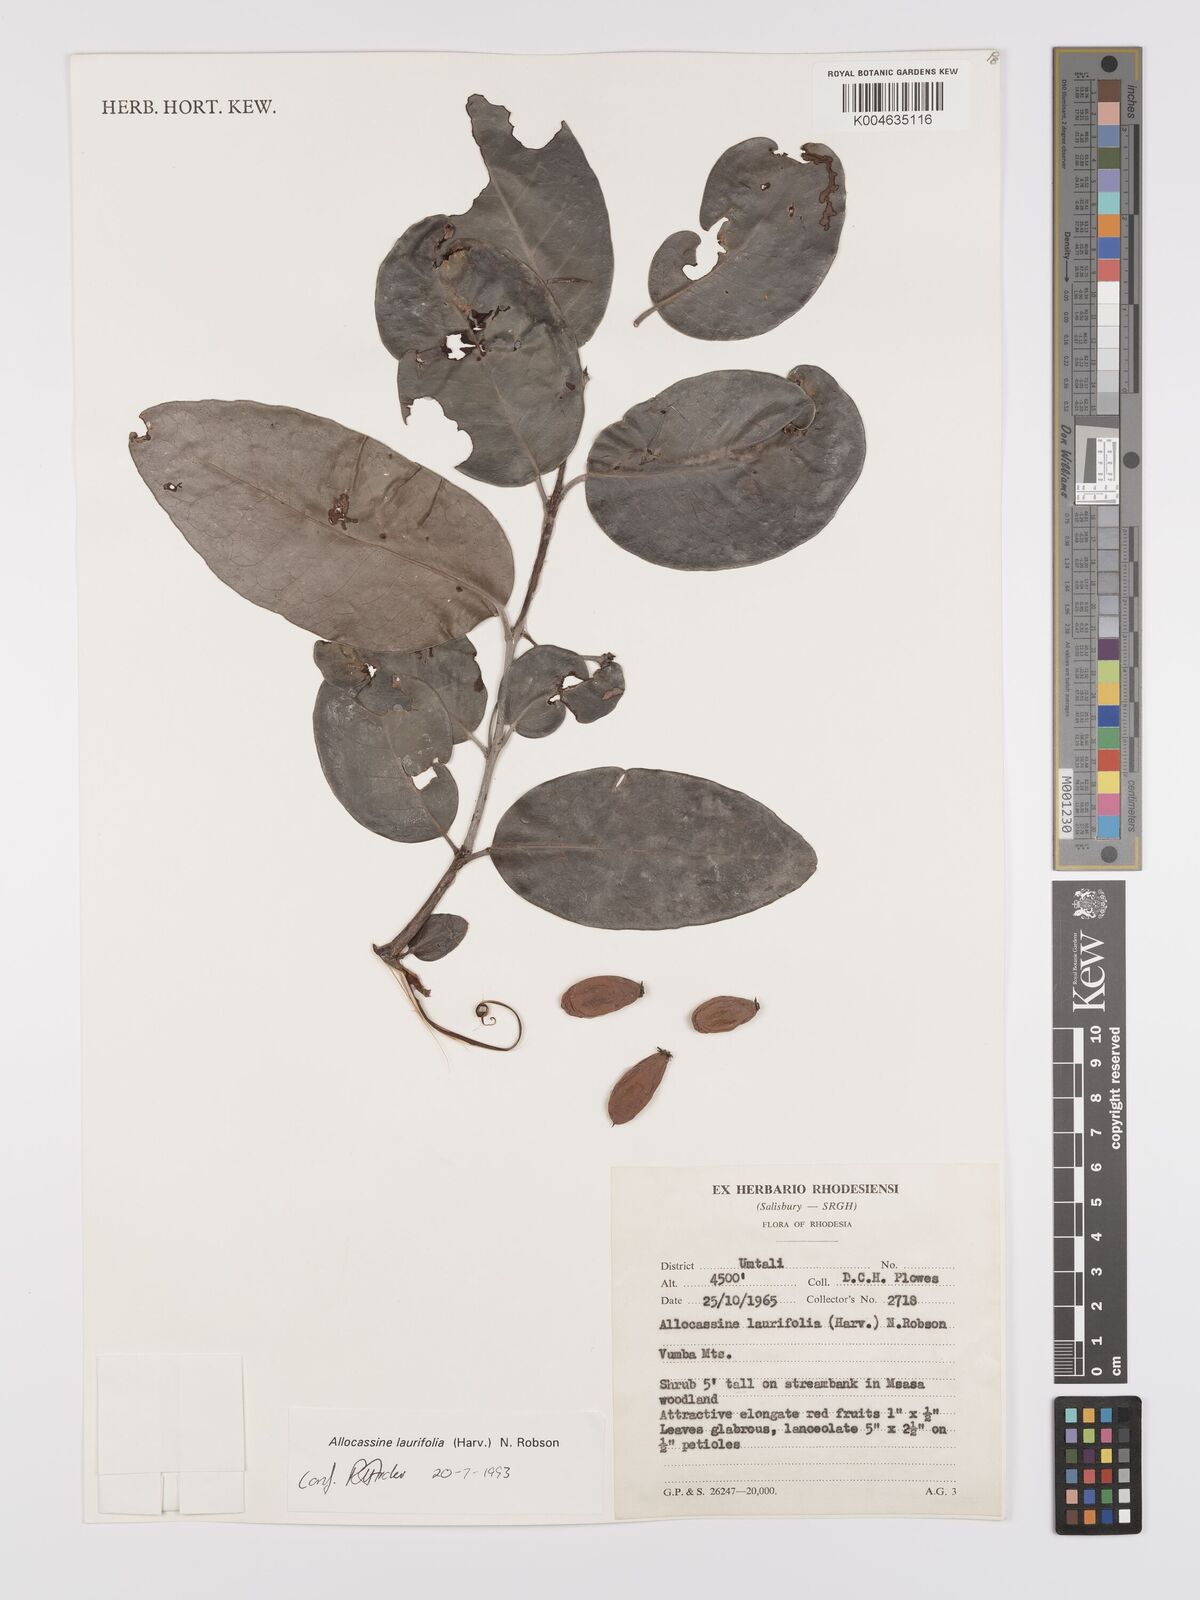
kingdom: Plantae
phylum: Tracheophyta
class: Magnoliopsida
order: Celastrales
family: Celastraceae
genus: Allocassine
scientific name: Allocassine laurifolia
